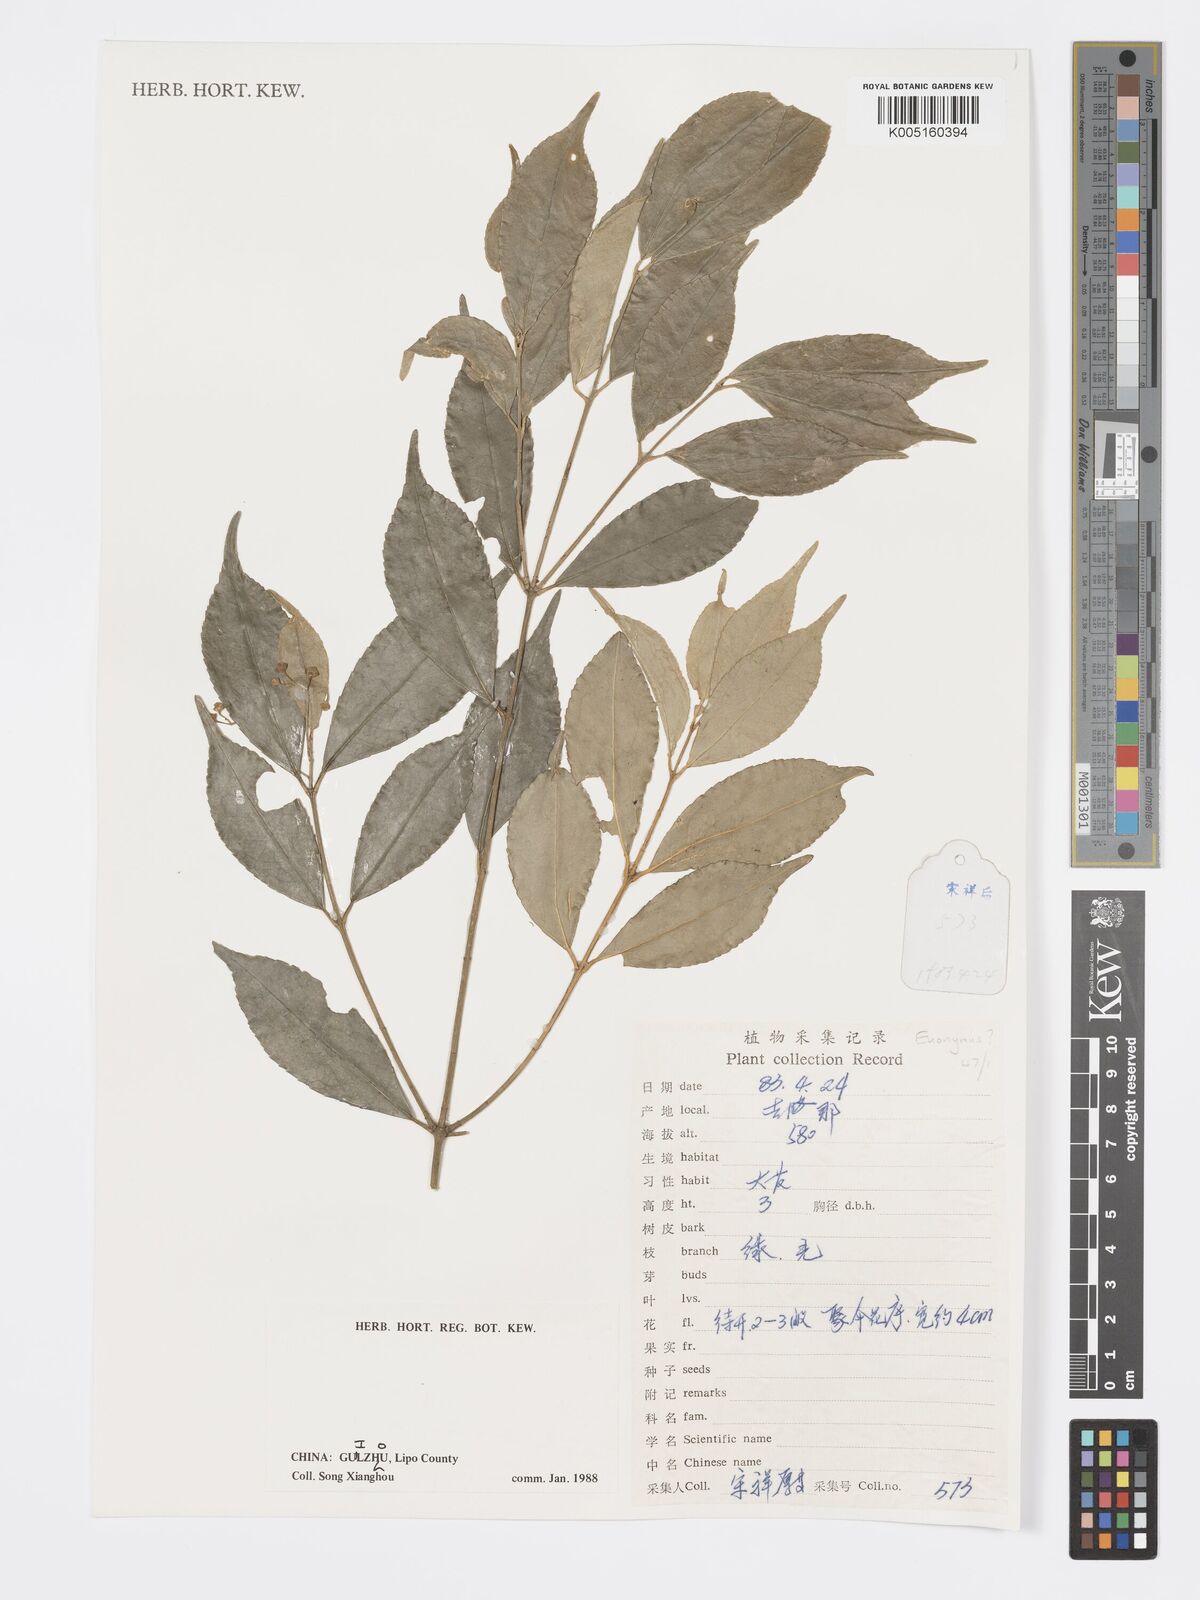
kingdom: Plantae
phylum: Tracheophyta
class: Magnoliopsida
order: Celastrales
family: Celastraceae
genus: Euonymus
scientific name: Euonymus
